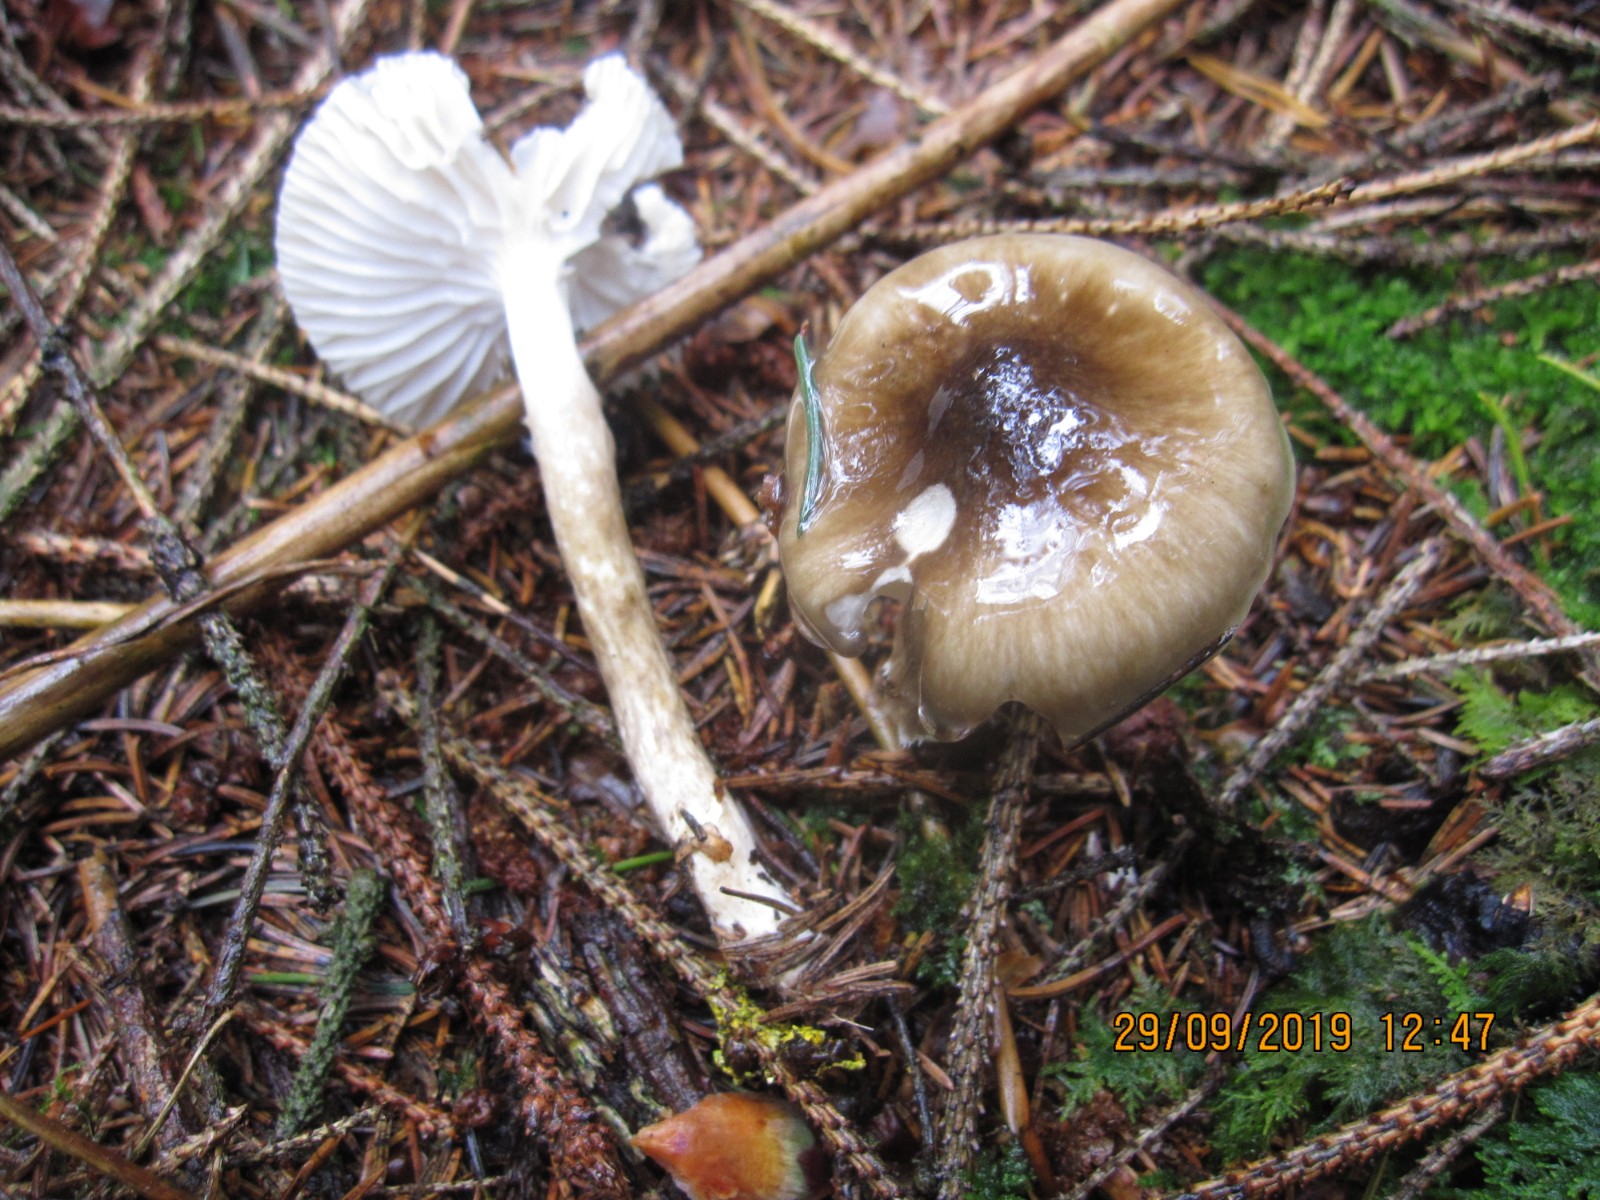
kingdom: Fungi
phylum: Basidiomycota
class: Agaricomycetes
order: Agaricales
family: Hygrophoraceae
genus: Hygrophorus
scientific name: Hygrophorus olivaceoalbus
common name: hvidbrun sneglehat
